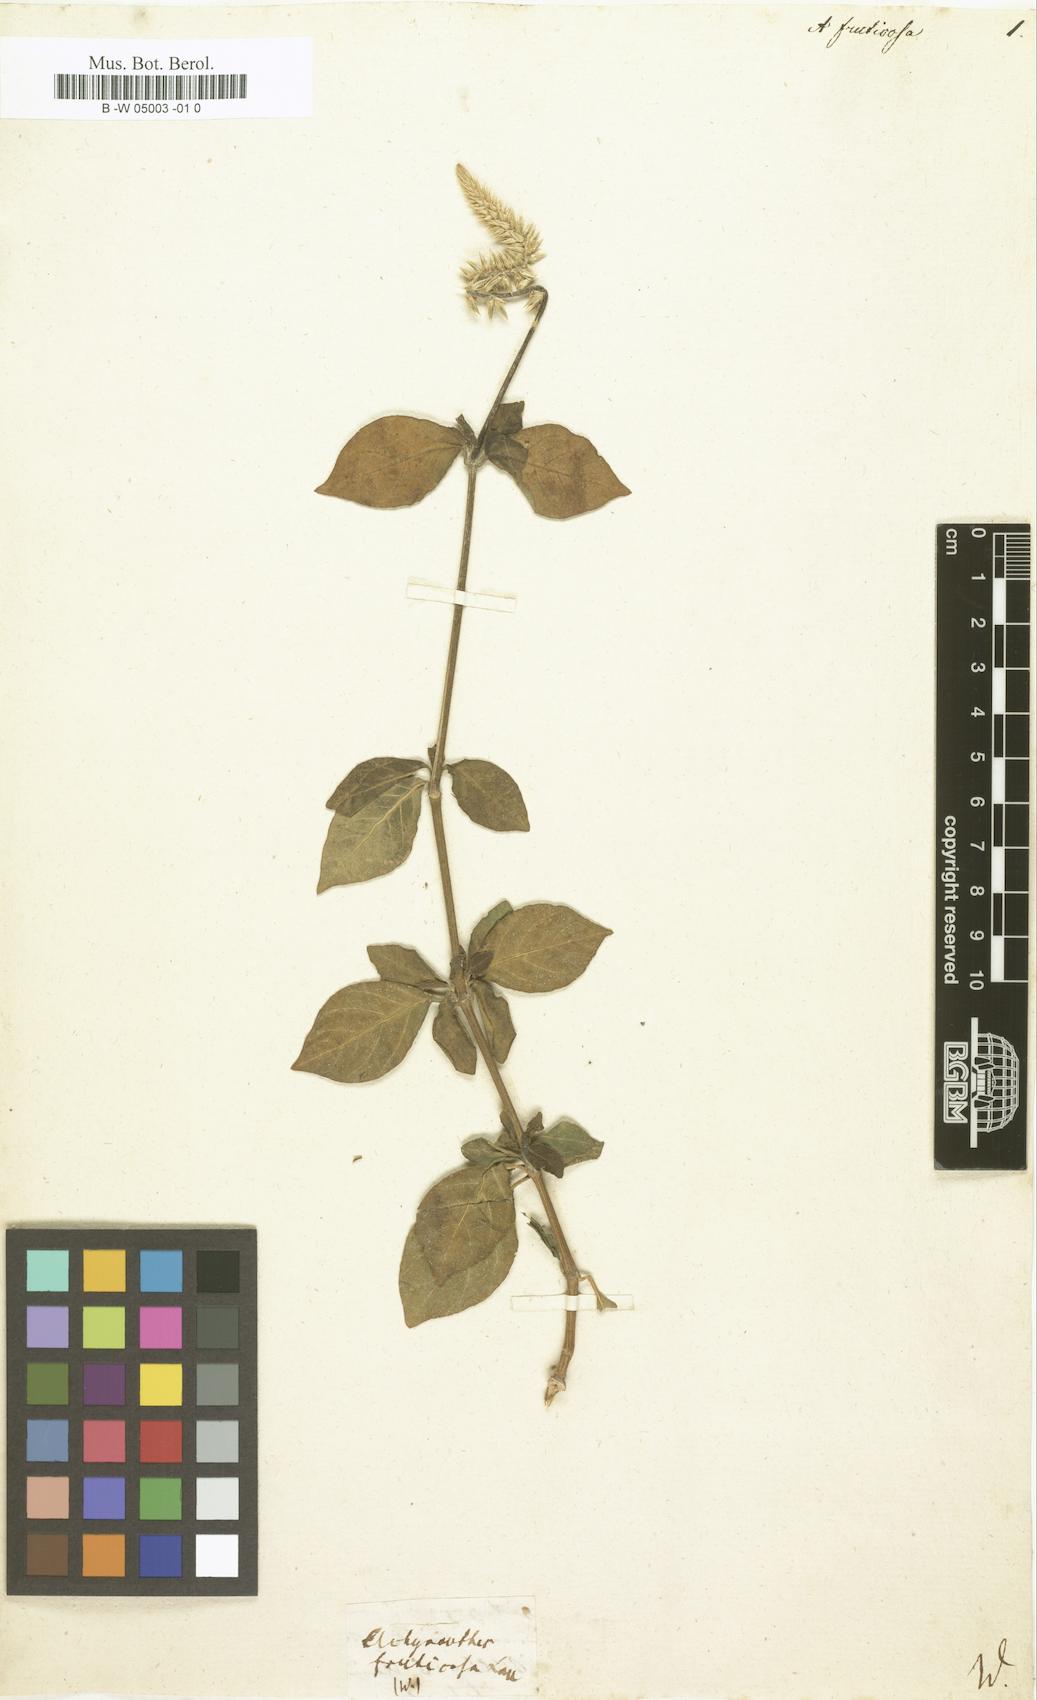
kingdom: Plantae
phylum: Tracheophyta
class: Magnoliopsida
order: Caryophyllales
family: Amaranthaceae
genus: Achyranthes
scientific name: Achyranthes bidentata
